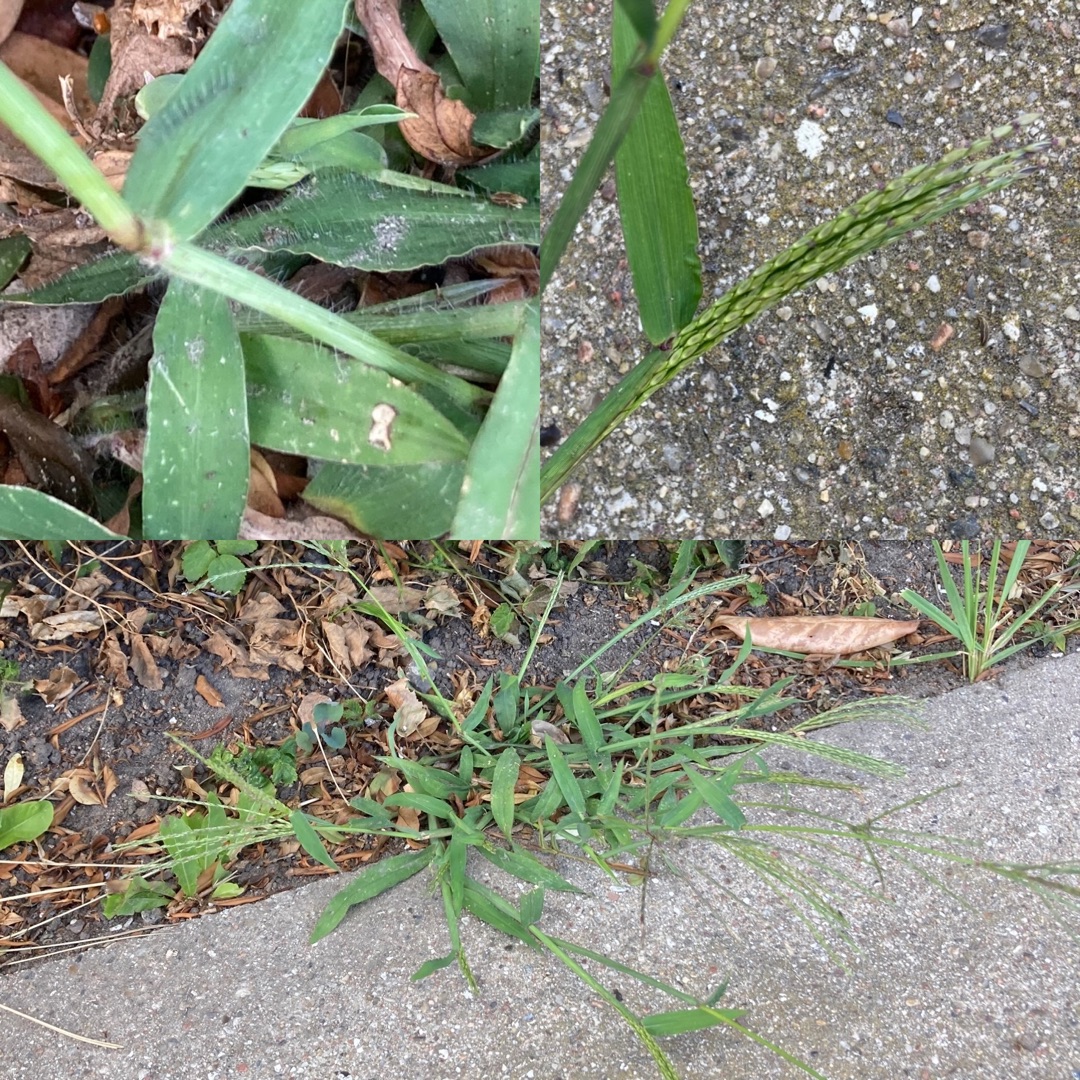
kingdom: Plantae
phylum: Tracheophyta
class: Liliopsida
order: Poales
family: Poaceae
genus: Digitaria
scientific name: Digitaria sanguinalis
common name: Blodhirse
